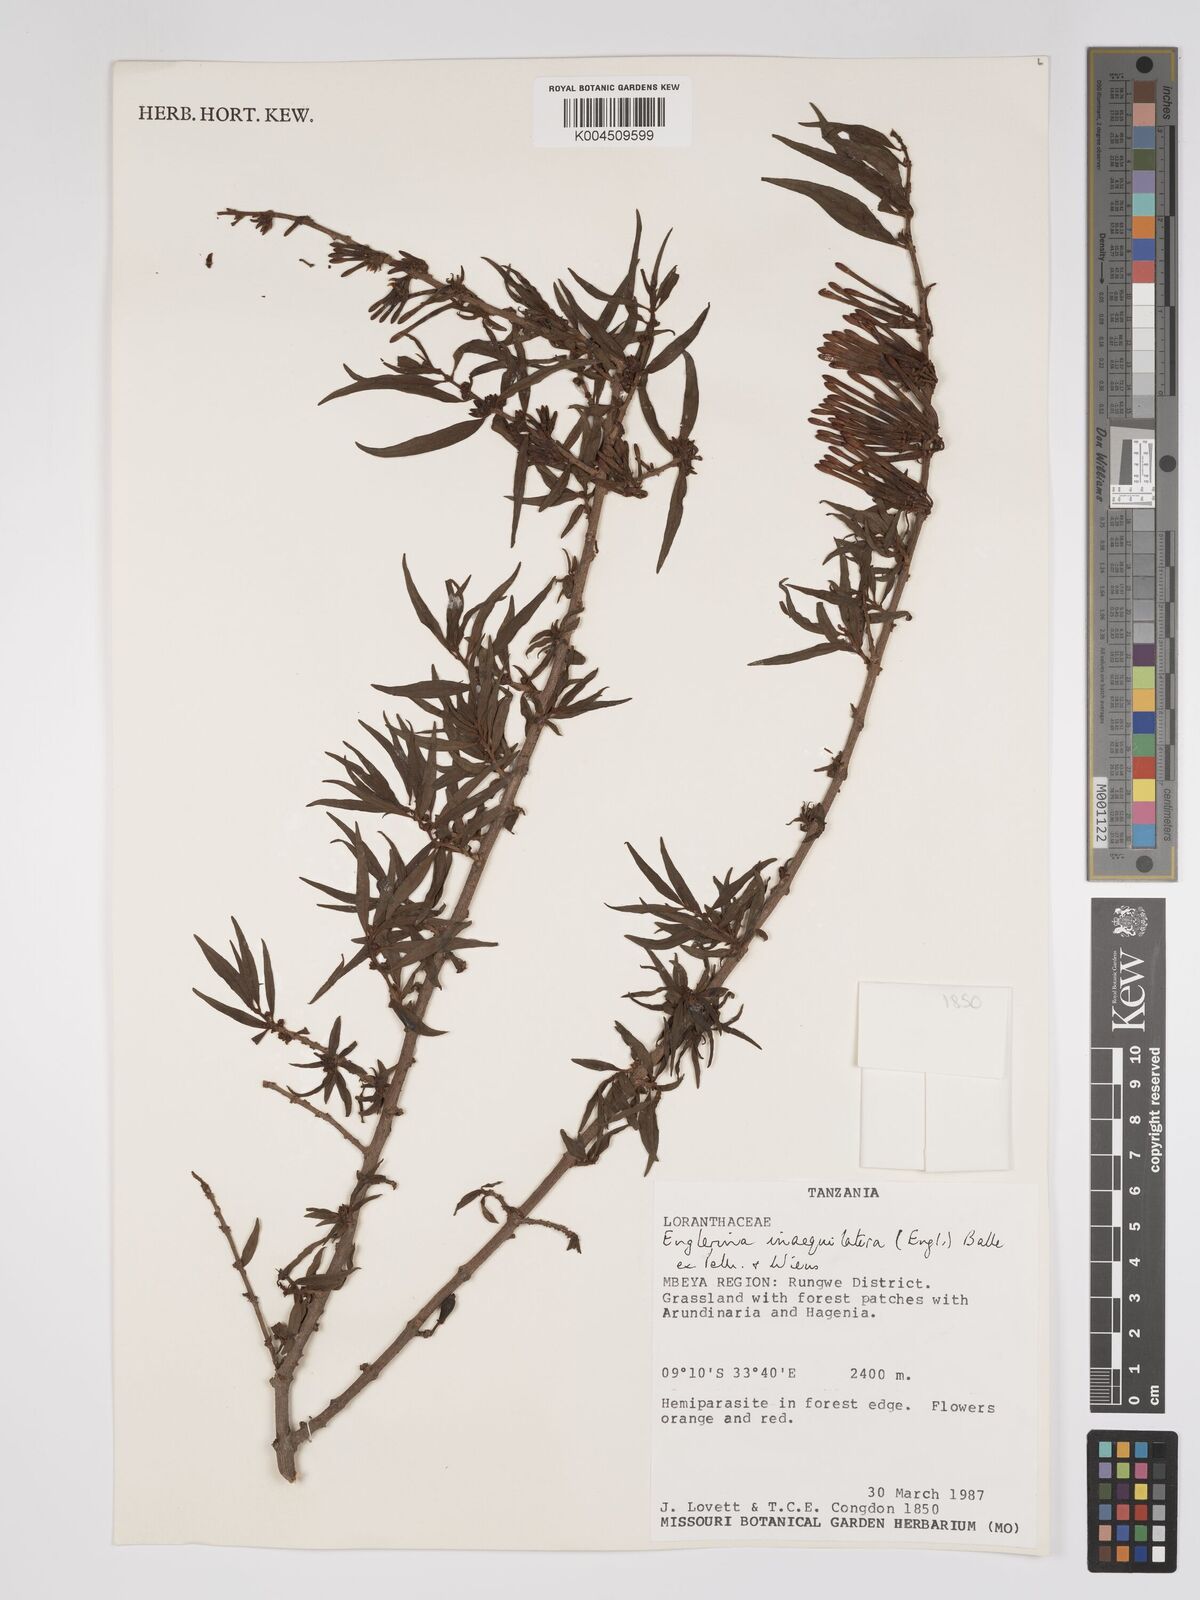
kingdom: Plantae
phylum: Tracheophyta
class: Magnoliopsida
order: Santalales
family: Loranthaceae
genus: Englerina
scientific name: Englerina inaequilatera
